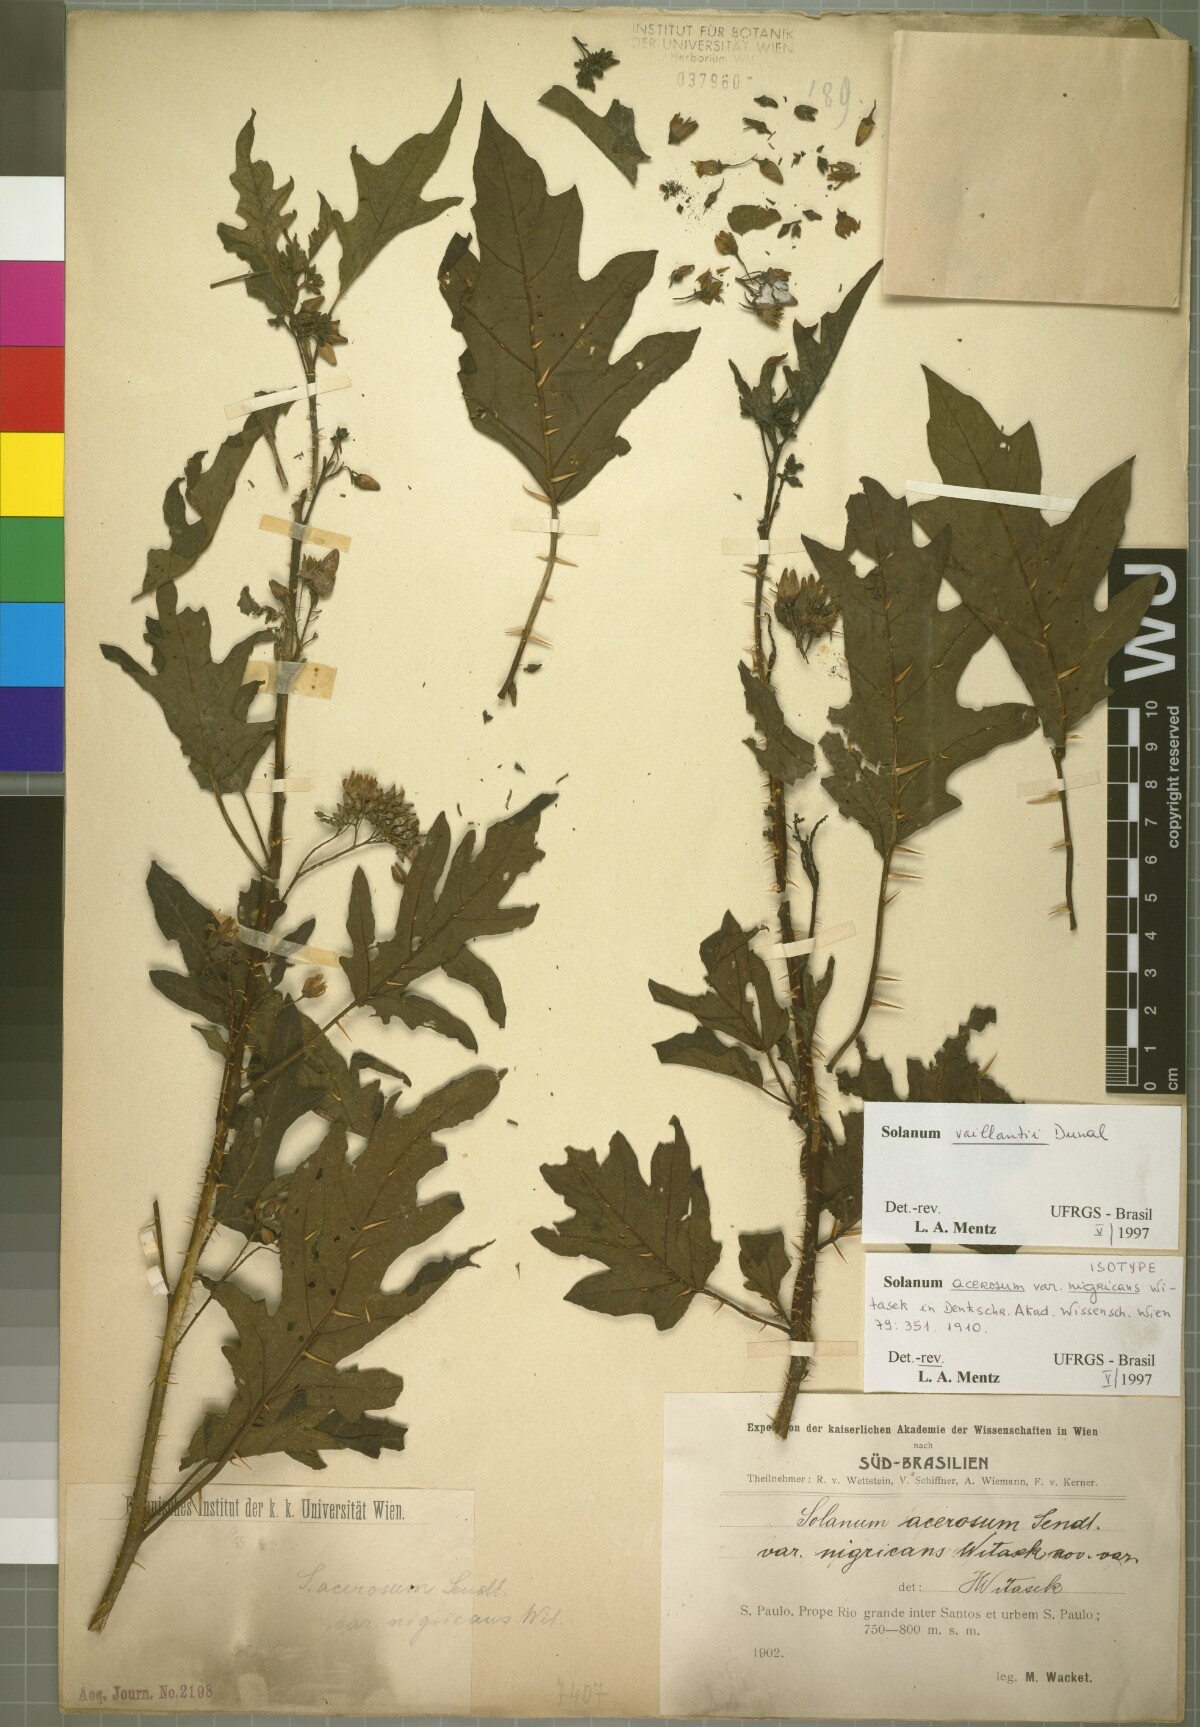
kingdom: Plantae
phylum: Tracheophyta
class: Magnoliopsida
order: Solanales
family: Solanaceae
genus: Solanum
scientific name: Solanum vaillantii
